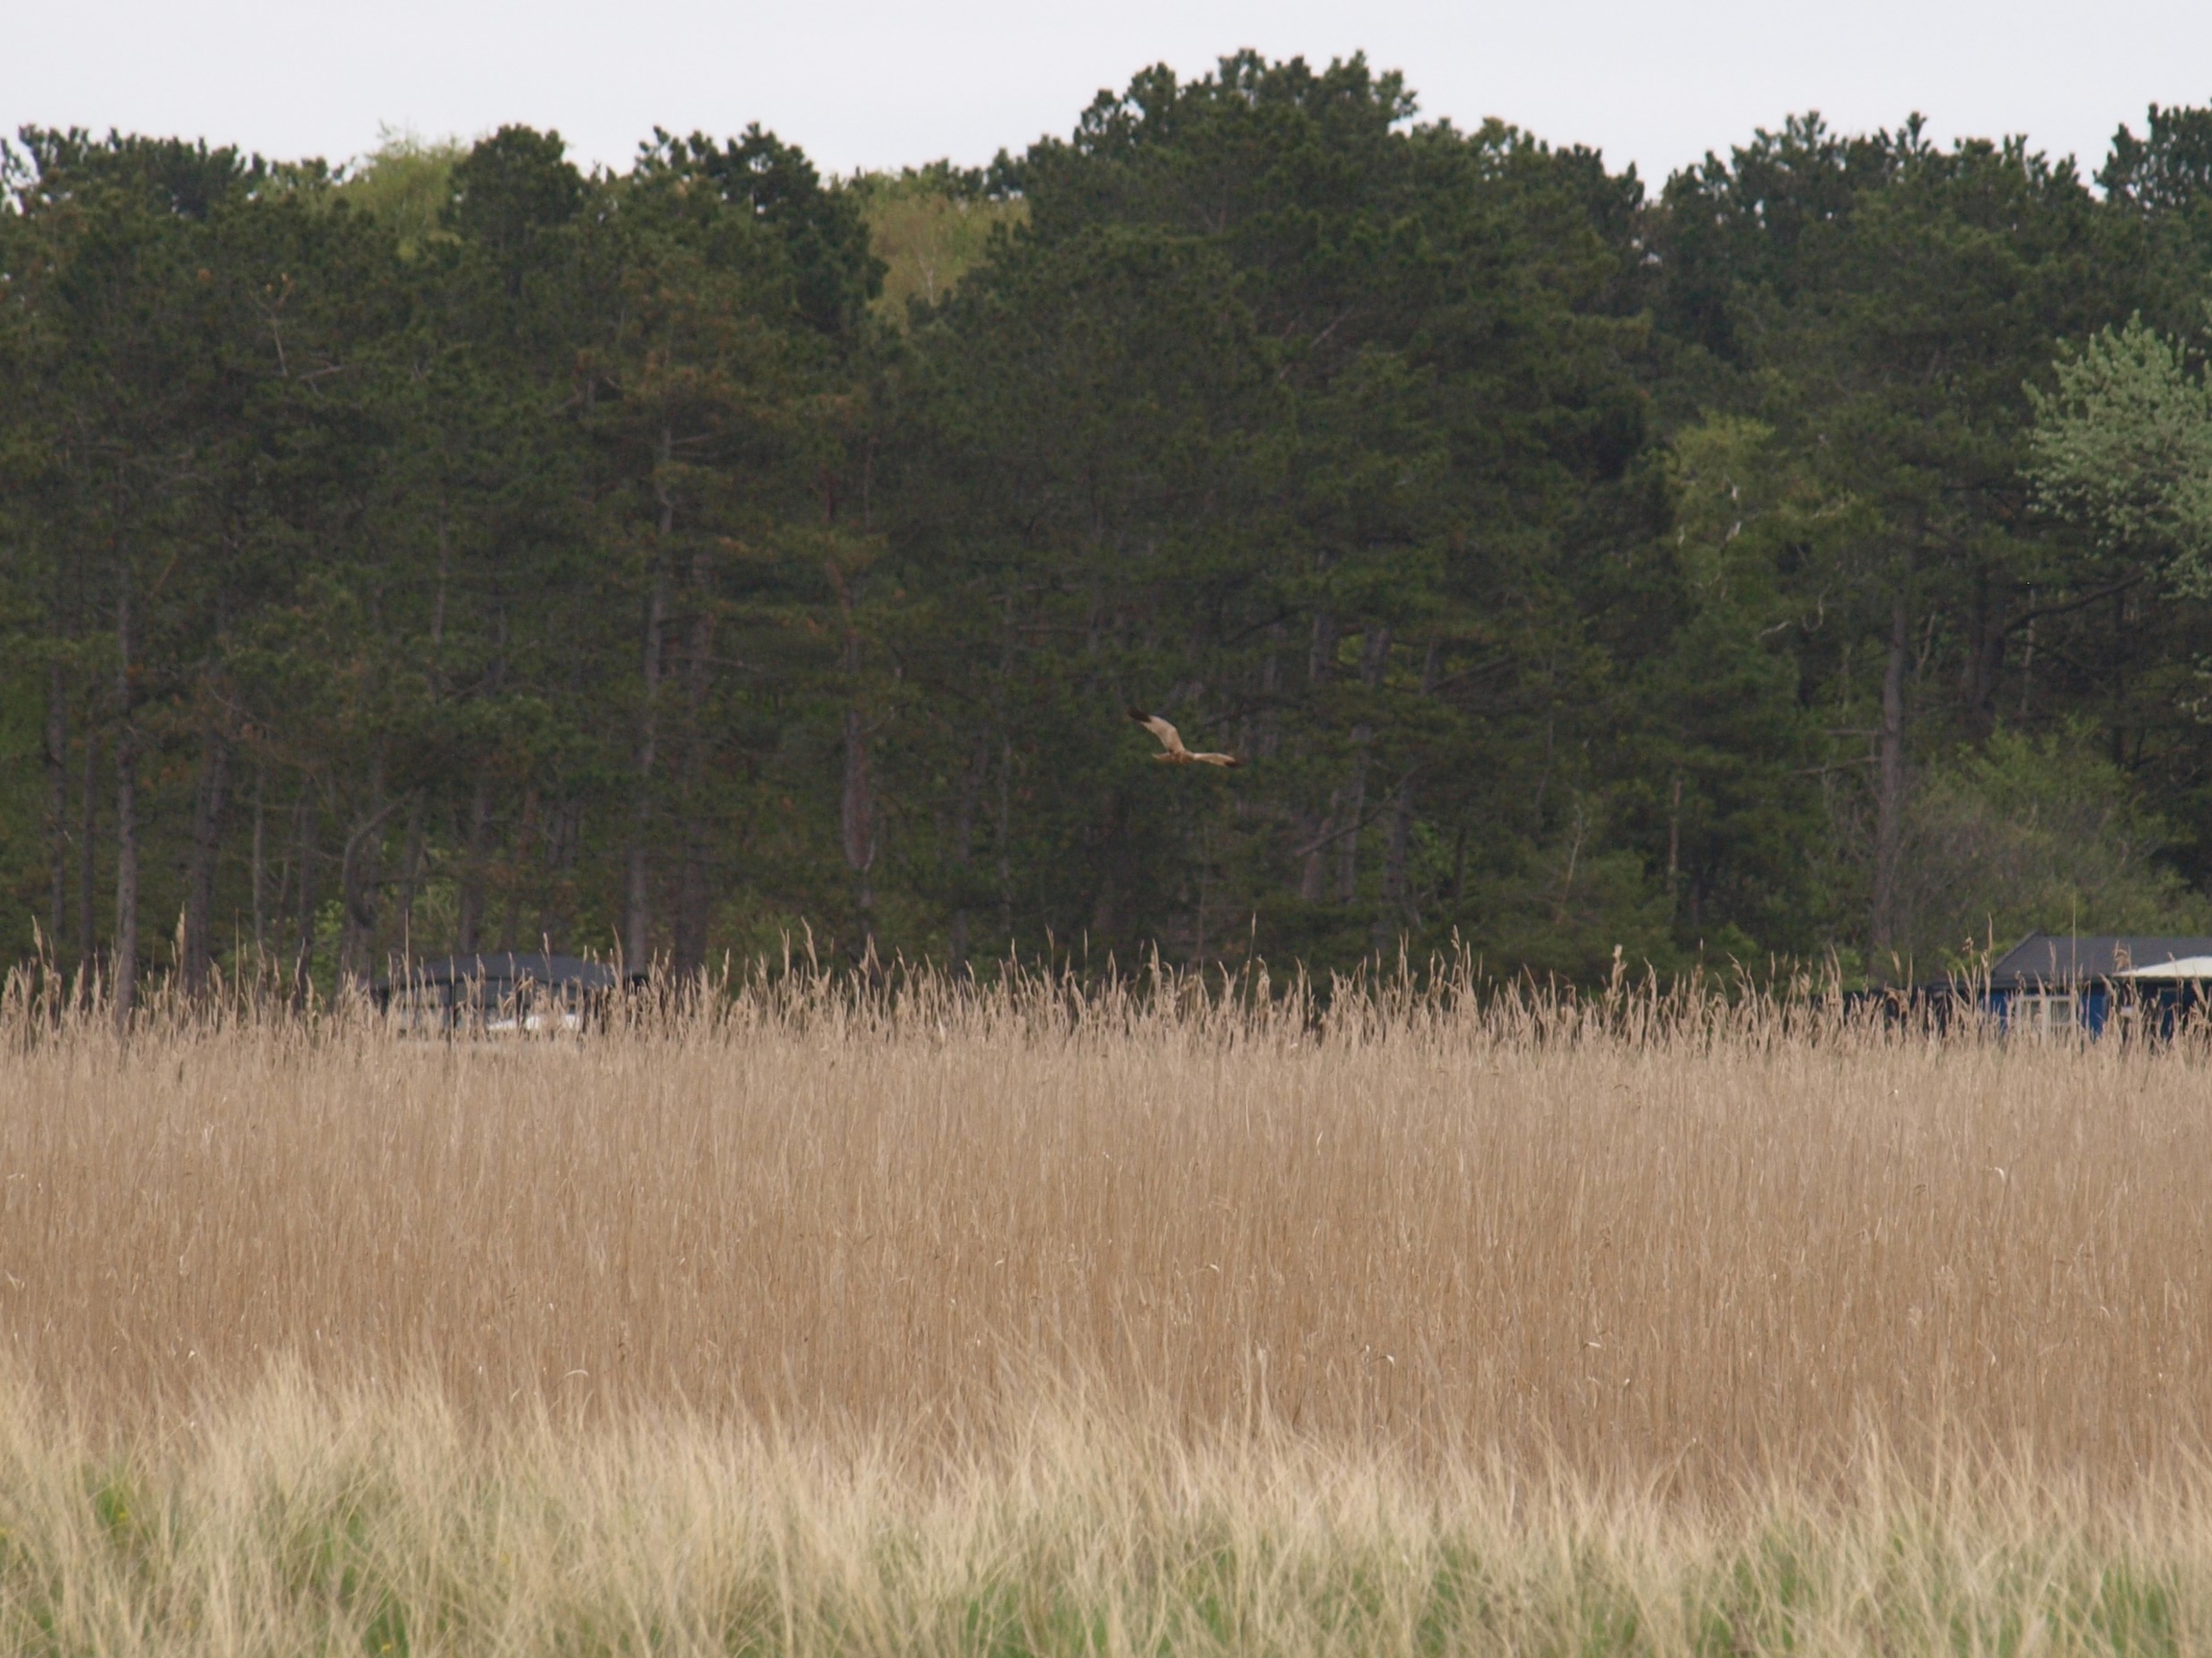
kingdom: Animalia
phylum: Chordata
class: Aves
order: Accipitriformes
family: Accipitridae
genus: Circus
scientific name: Circus aeruginosus
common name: Rørhøg
